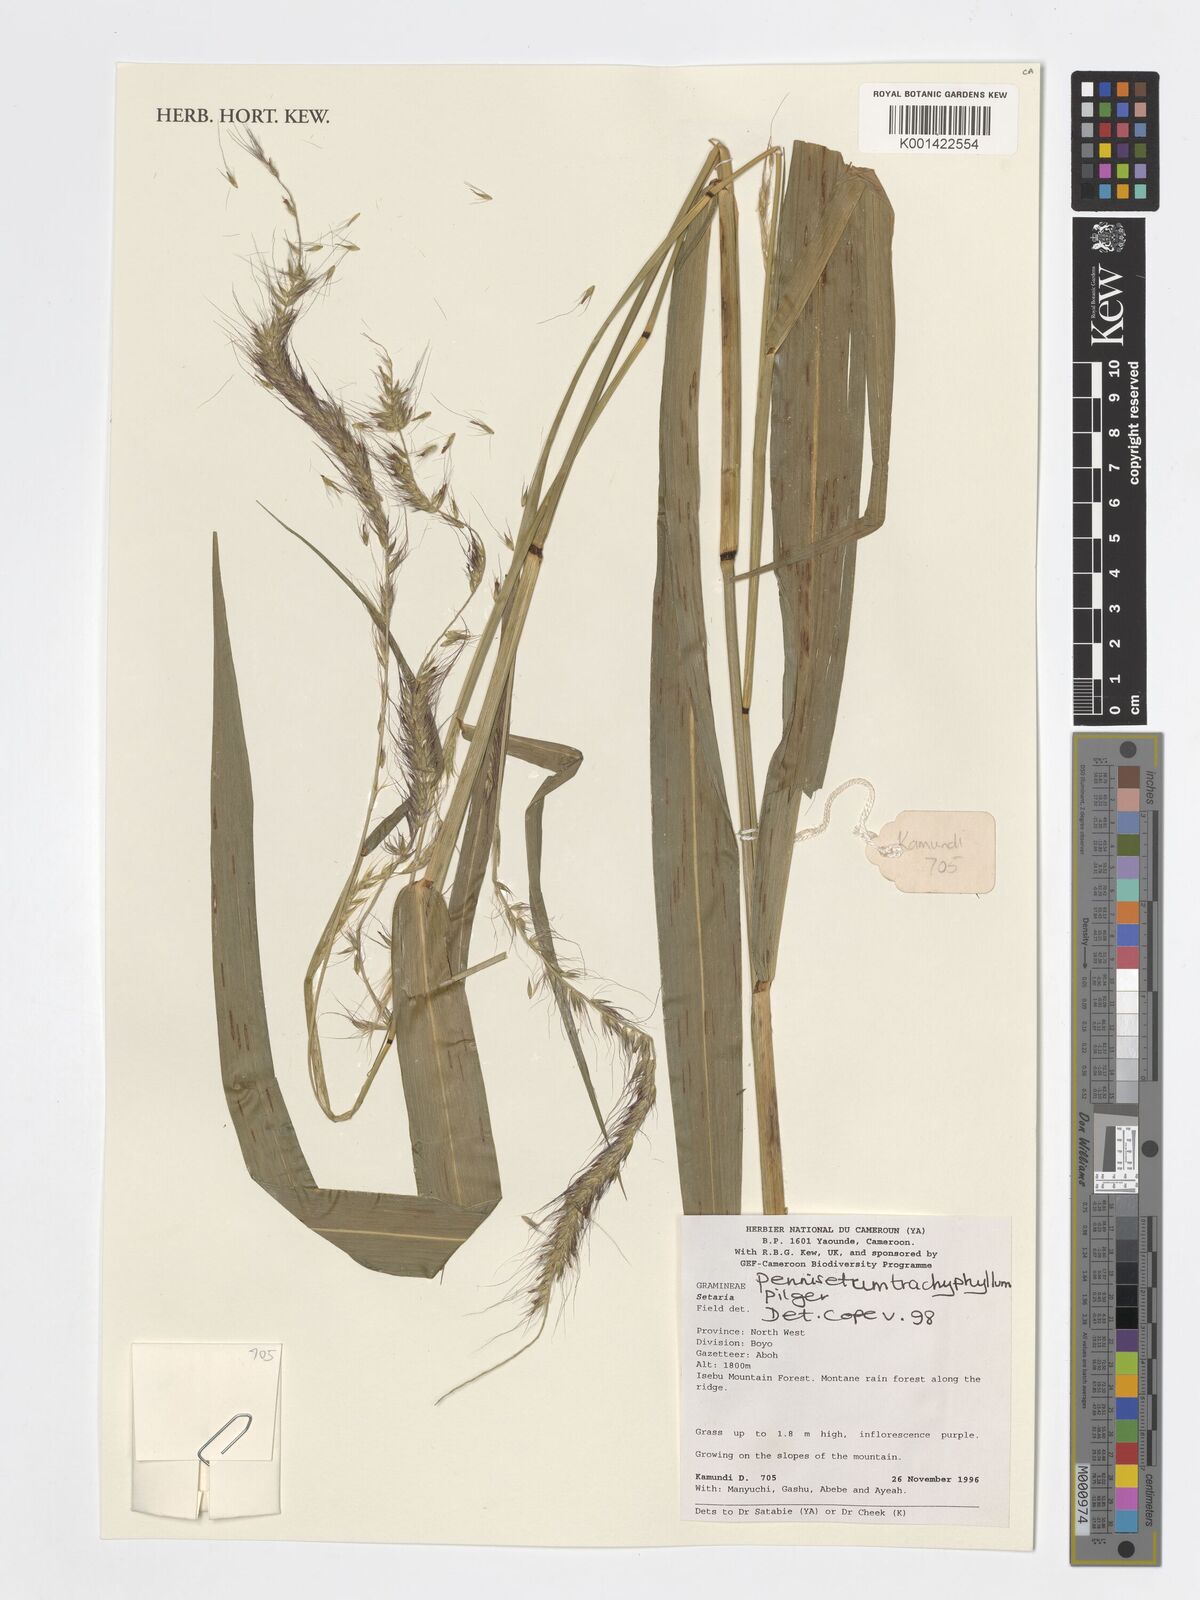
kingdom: Plantae
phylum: Tracheophyta
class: Liliopsida
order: Poales
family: Poaceae
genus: Cenchrus
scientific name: Cenchrus trachyphyllus
